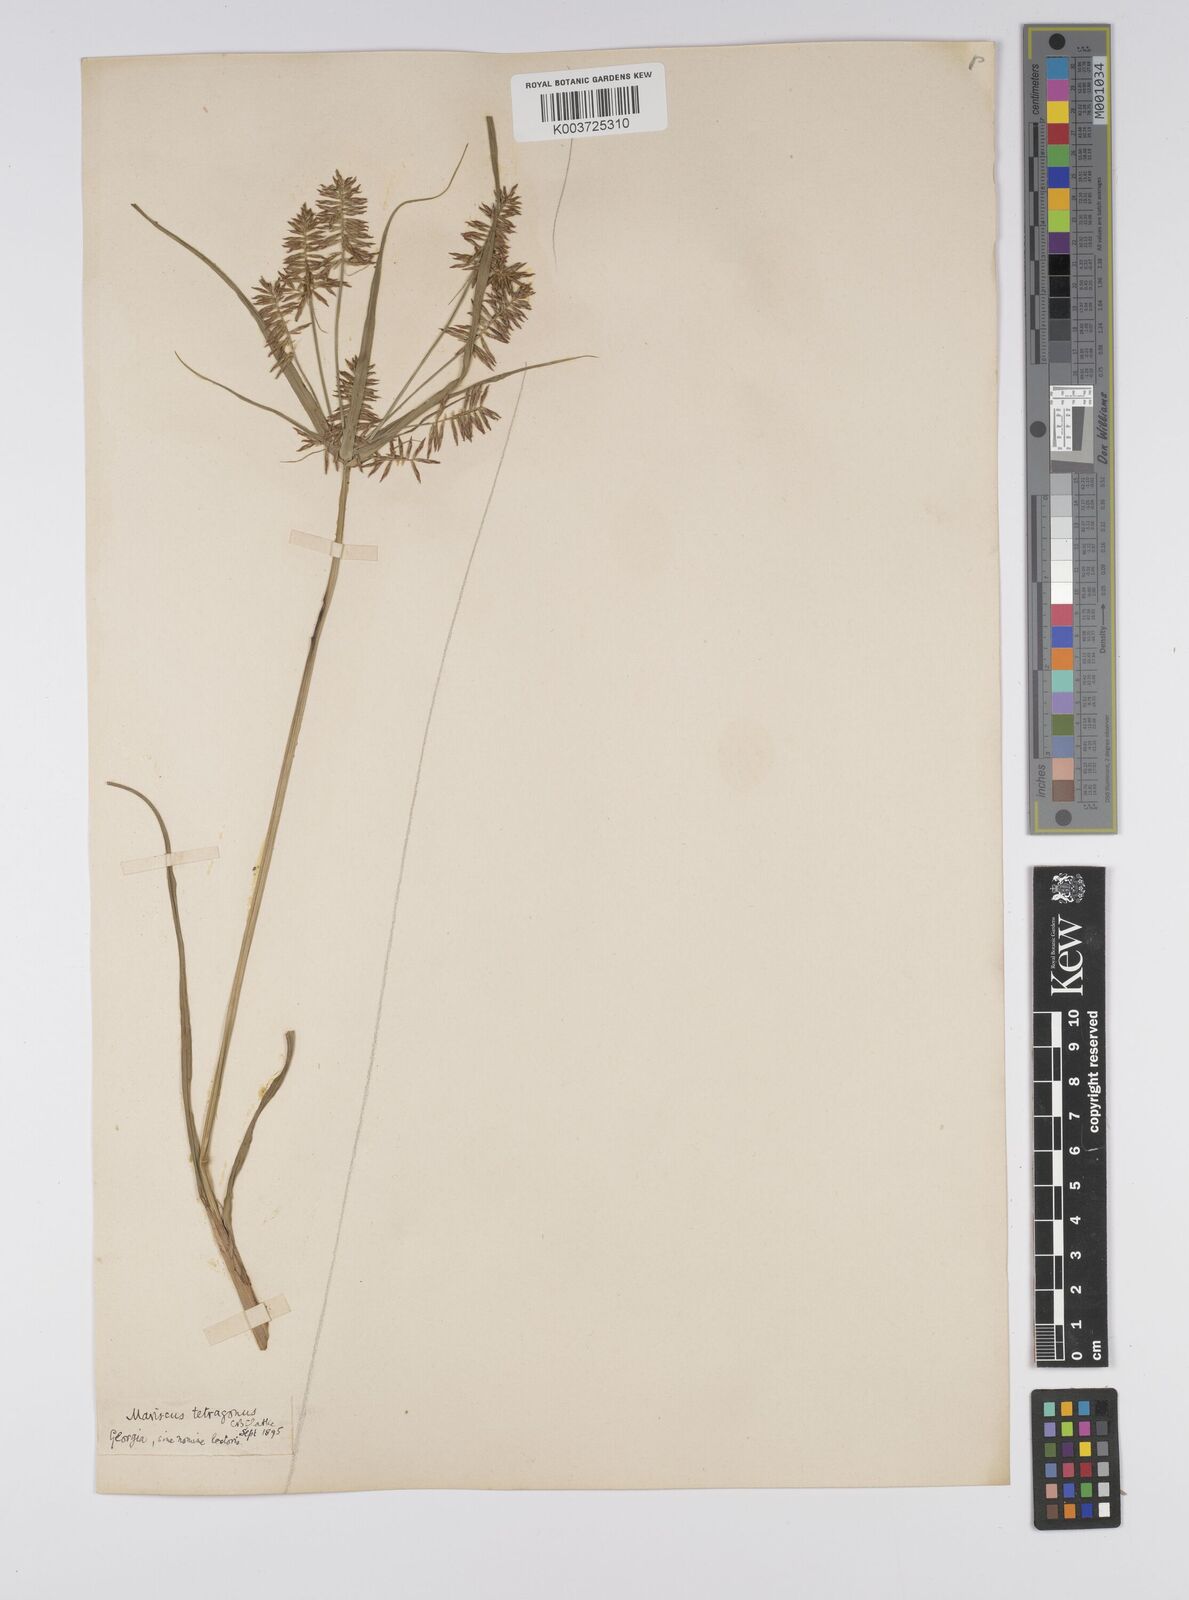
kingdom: Plantae
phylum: Tracheophyta
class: Liliopsida
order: Poales
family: Cyperaceae
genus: Cyperus
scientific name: Cyperus tetragonus
